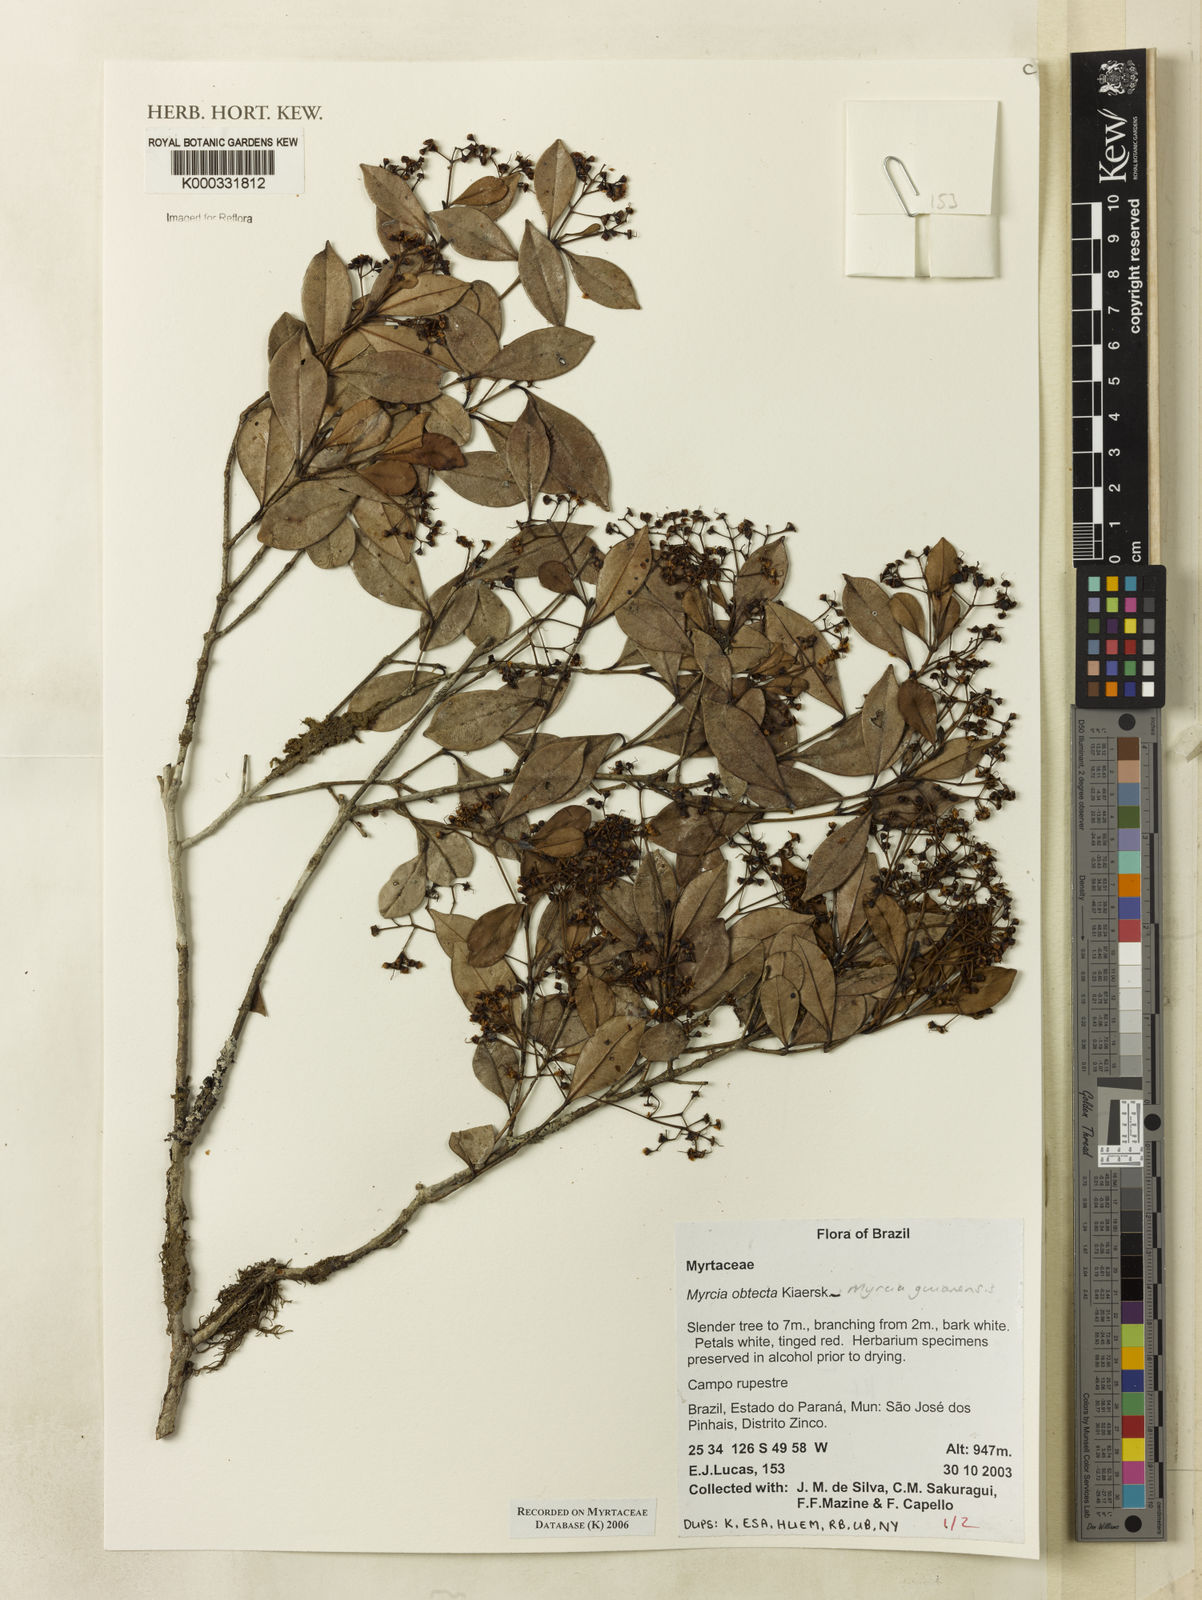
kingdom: Plantae
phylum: Tracheophyta
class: Magnoliopsida
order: Myrtales
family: Myrtaceae
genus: Myrcia
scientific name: Myrcia guianensis
